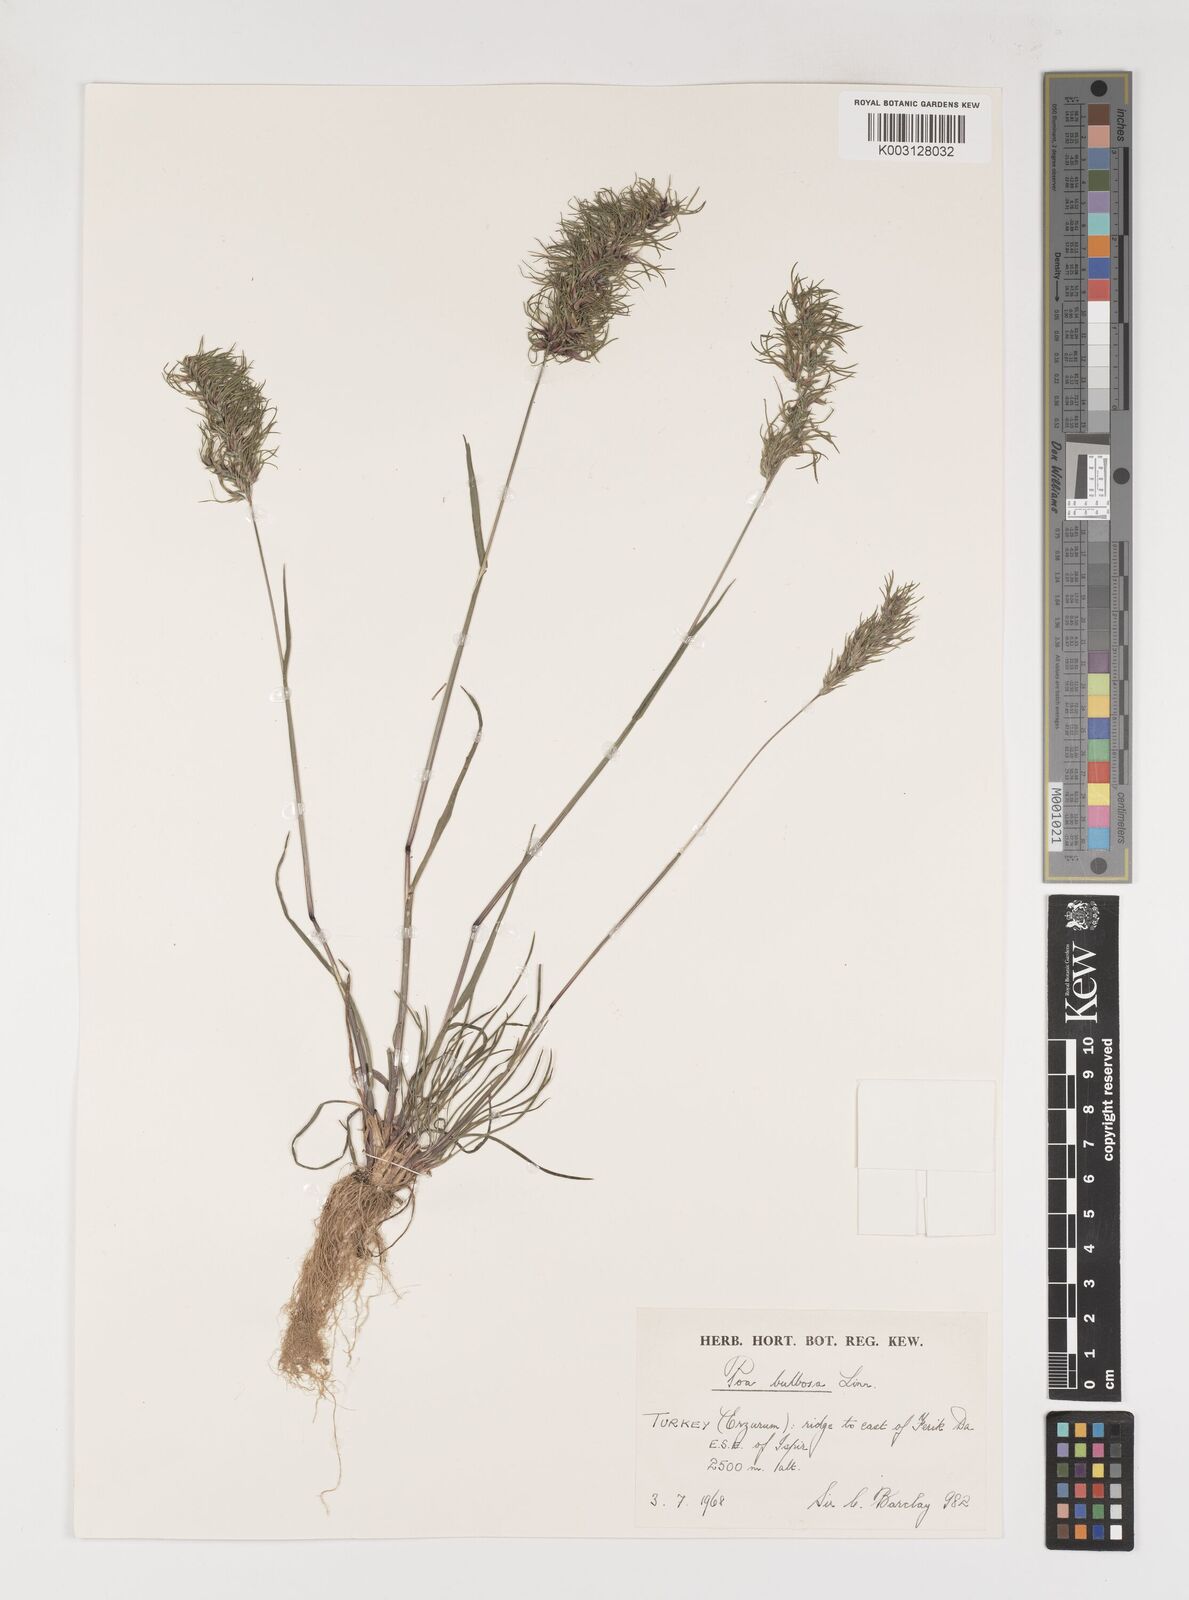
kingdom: Plantae
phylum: Tracheophyta
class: Liliopsida
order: Poales
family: Poaceae
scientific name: Poaceae
